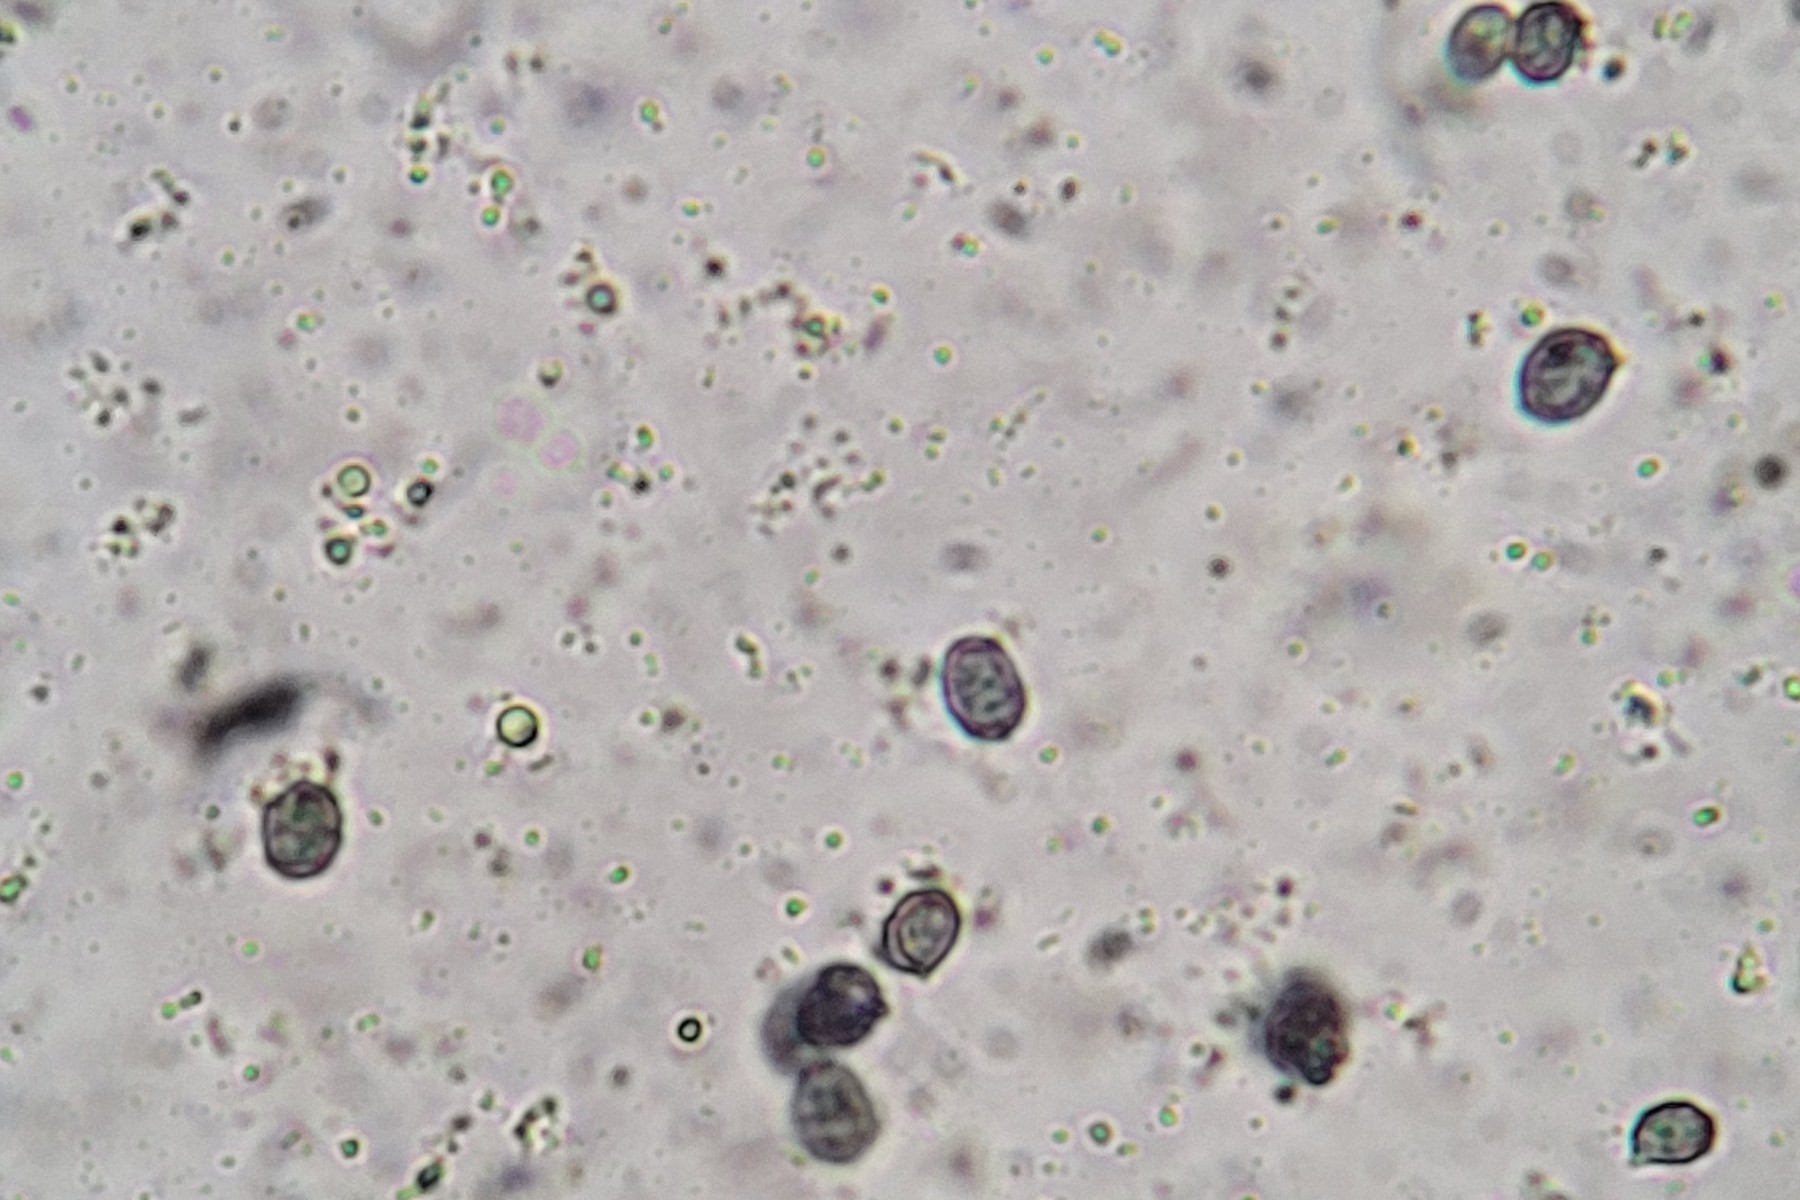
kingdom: Fungi
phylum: Basidiomycota
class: Agaricomycetes
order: Russulales
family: Russulaceae
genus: Lactarius
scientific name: Lactarius mammosus
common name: kokosbrun mælkehat
